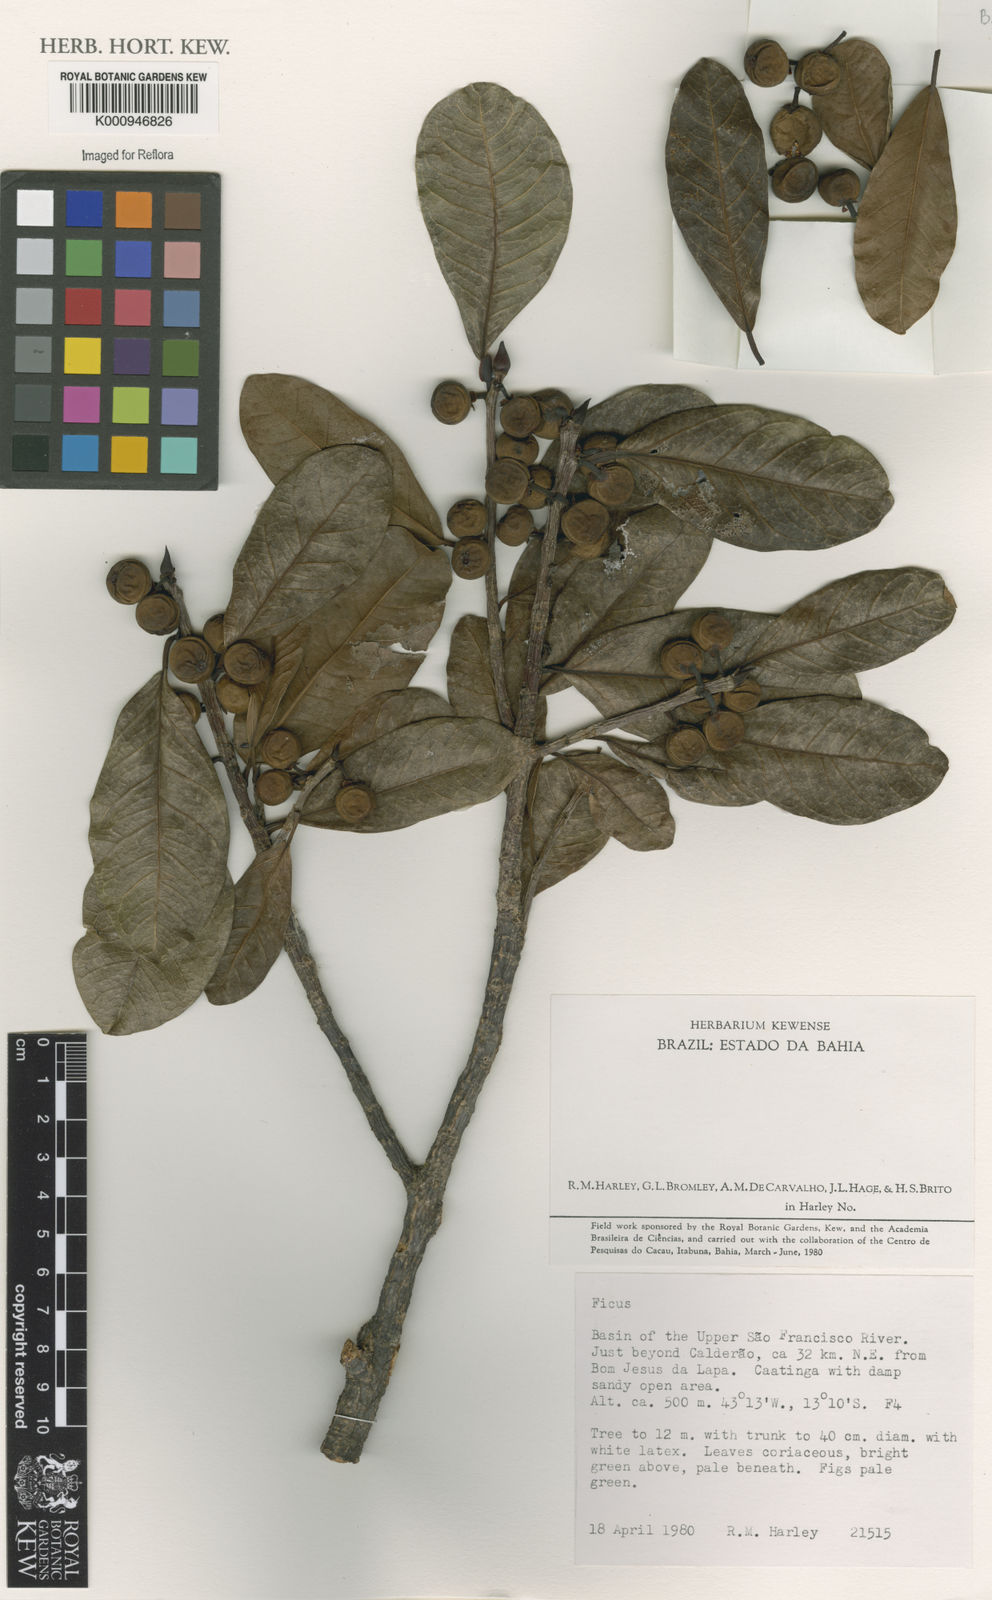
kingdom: Plantae
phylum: Tracheophyta
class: Magnoliopsida
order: Rosales
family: Moraceae
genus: Ficus
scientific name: Ficus
